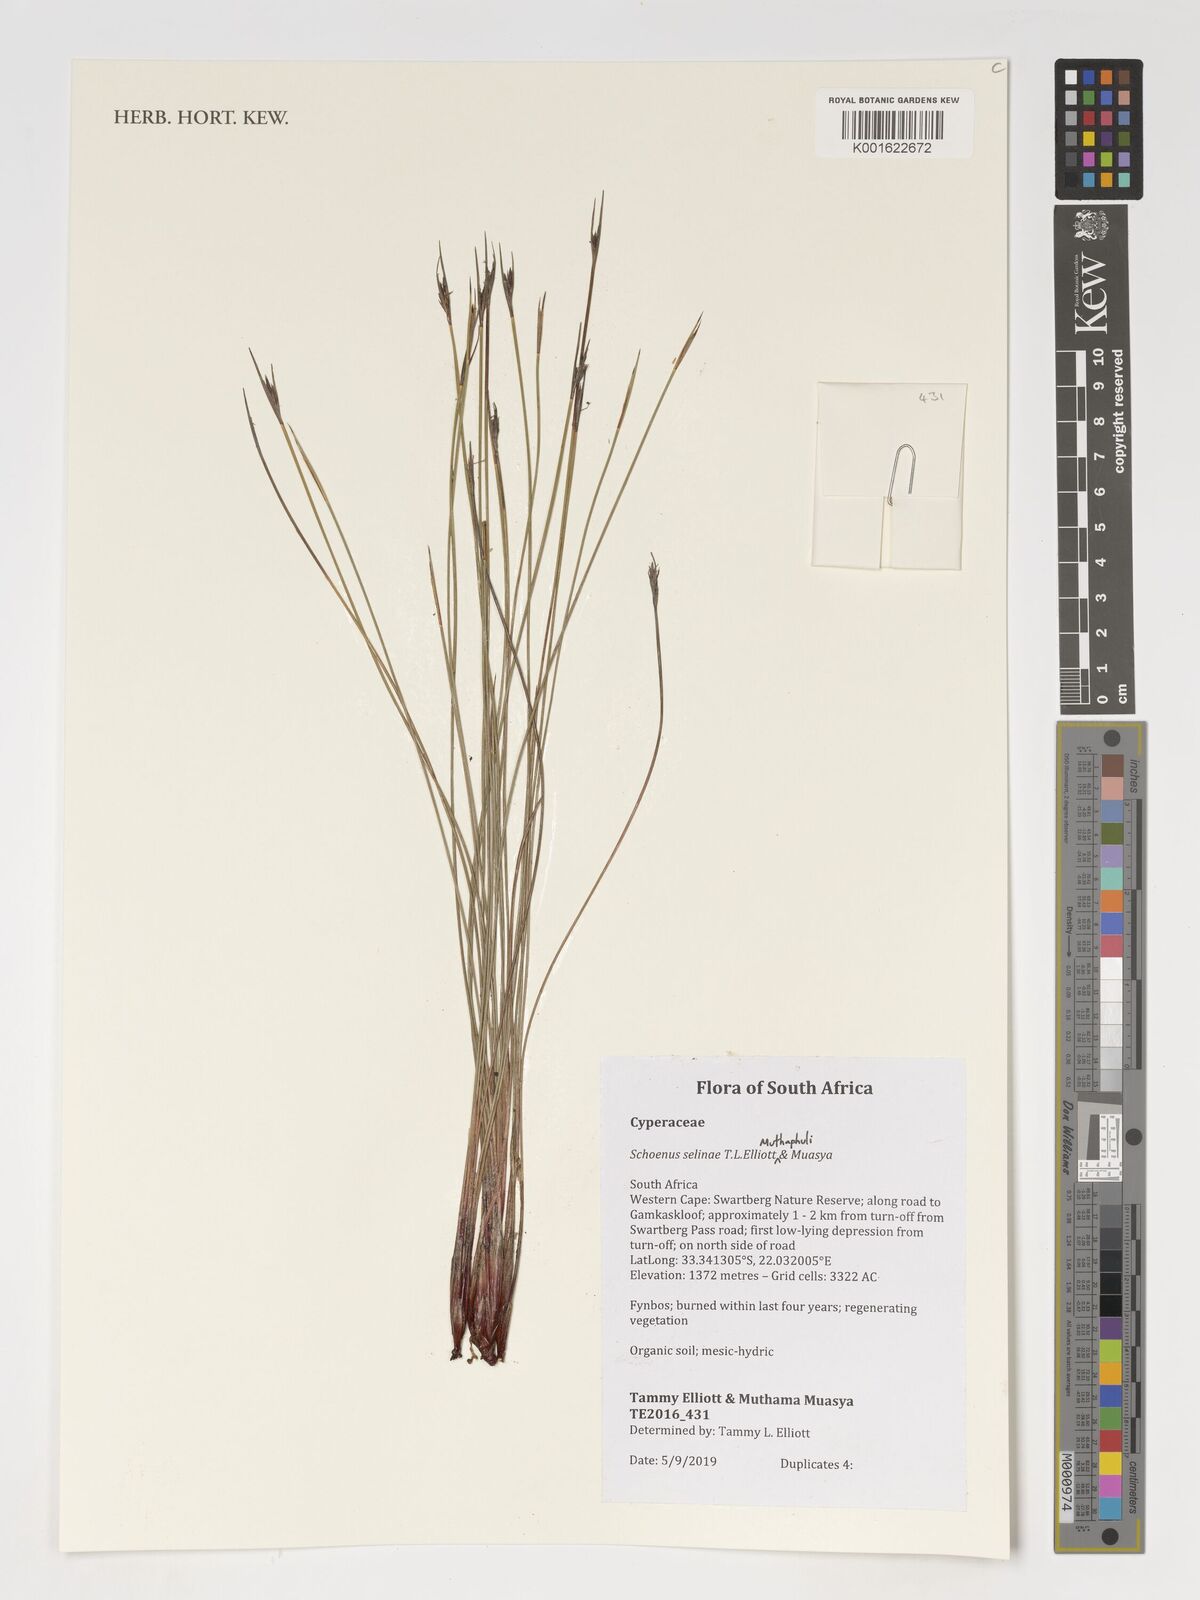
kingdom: Plantae
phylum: Tracheophyta
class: Liliopsida
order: Poales
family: Cyperaceae
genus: Schoenus
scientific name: Schoenus
